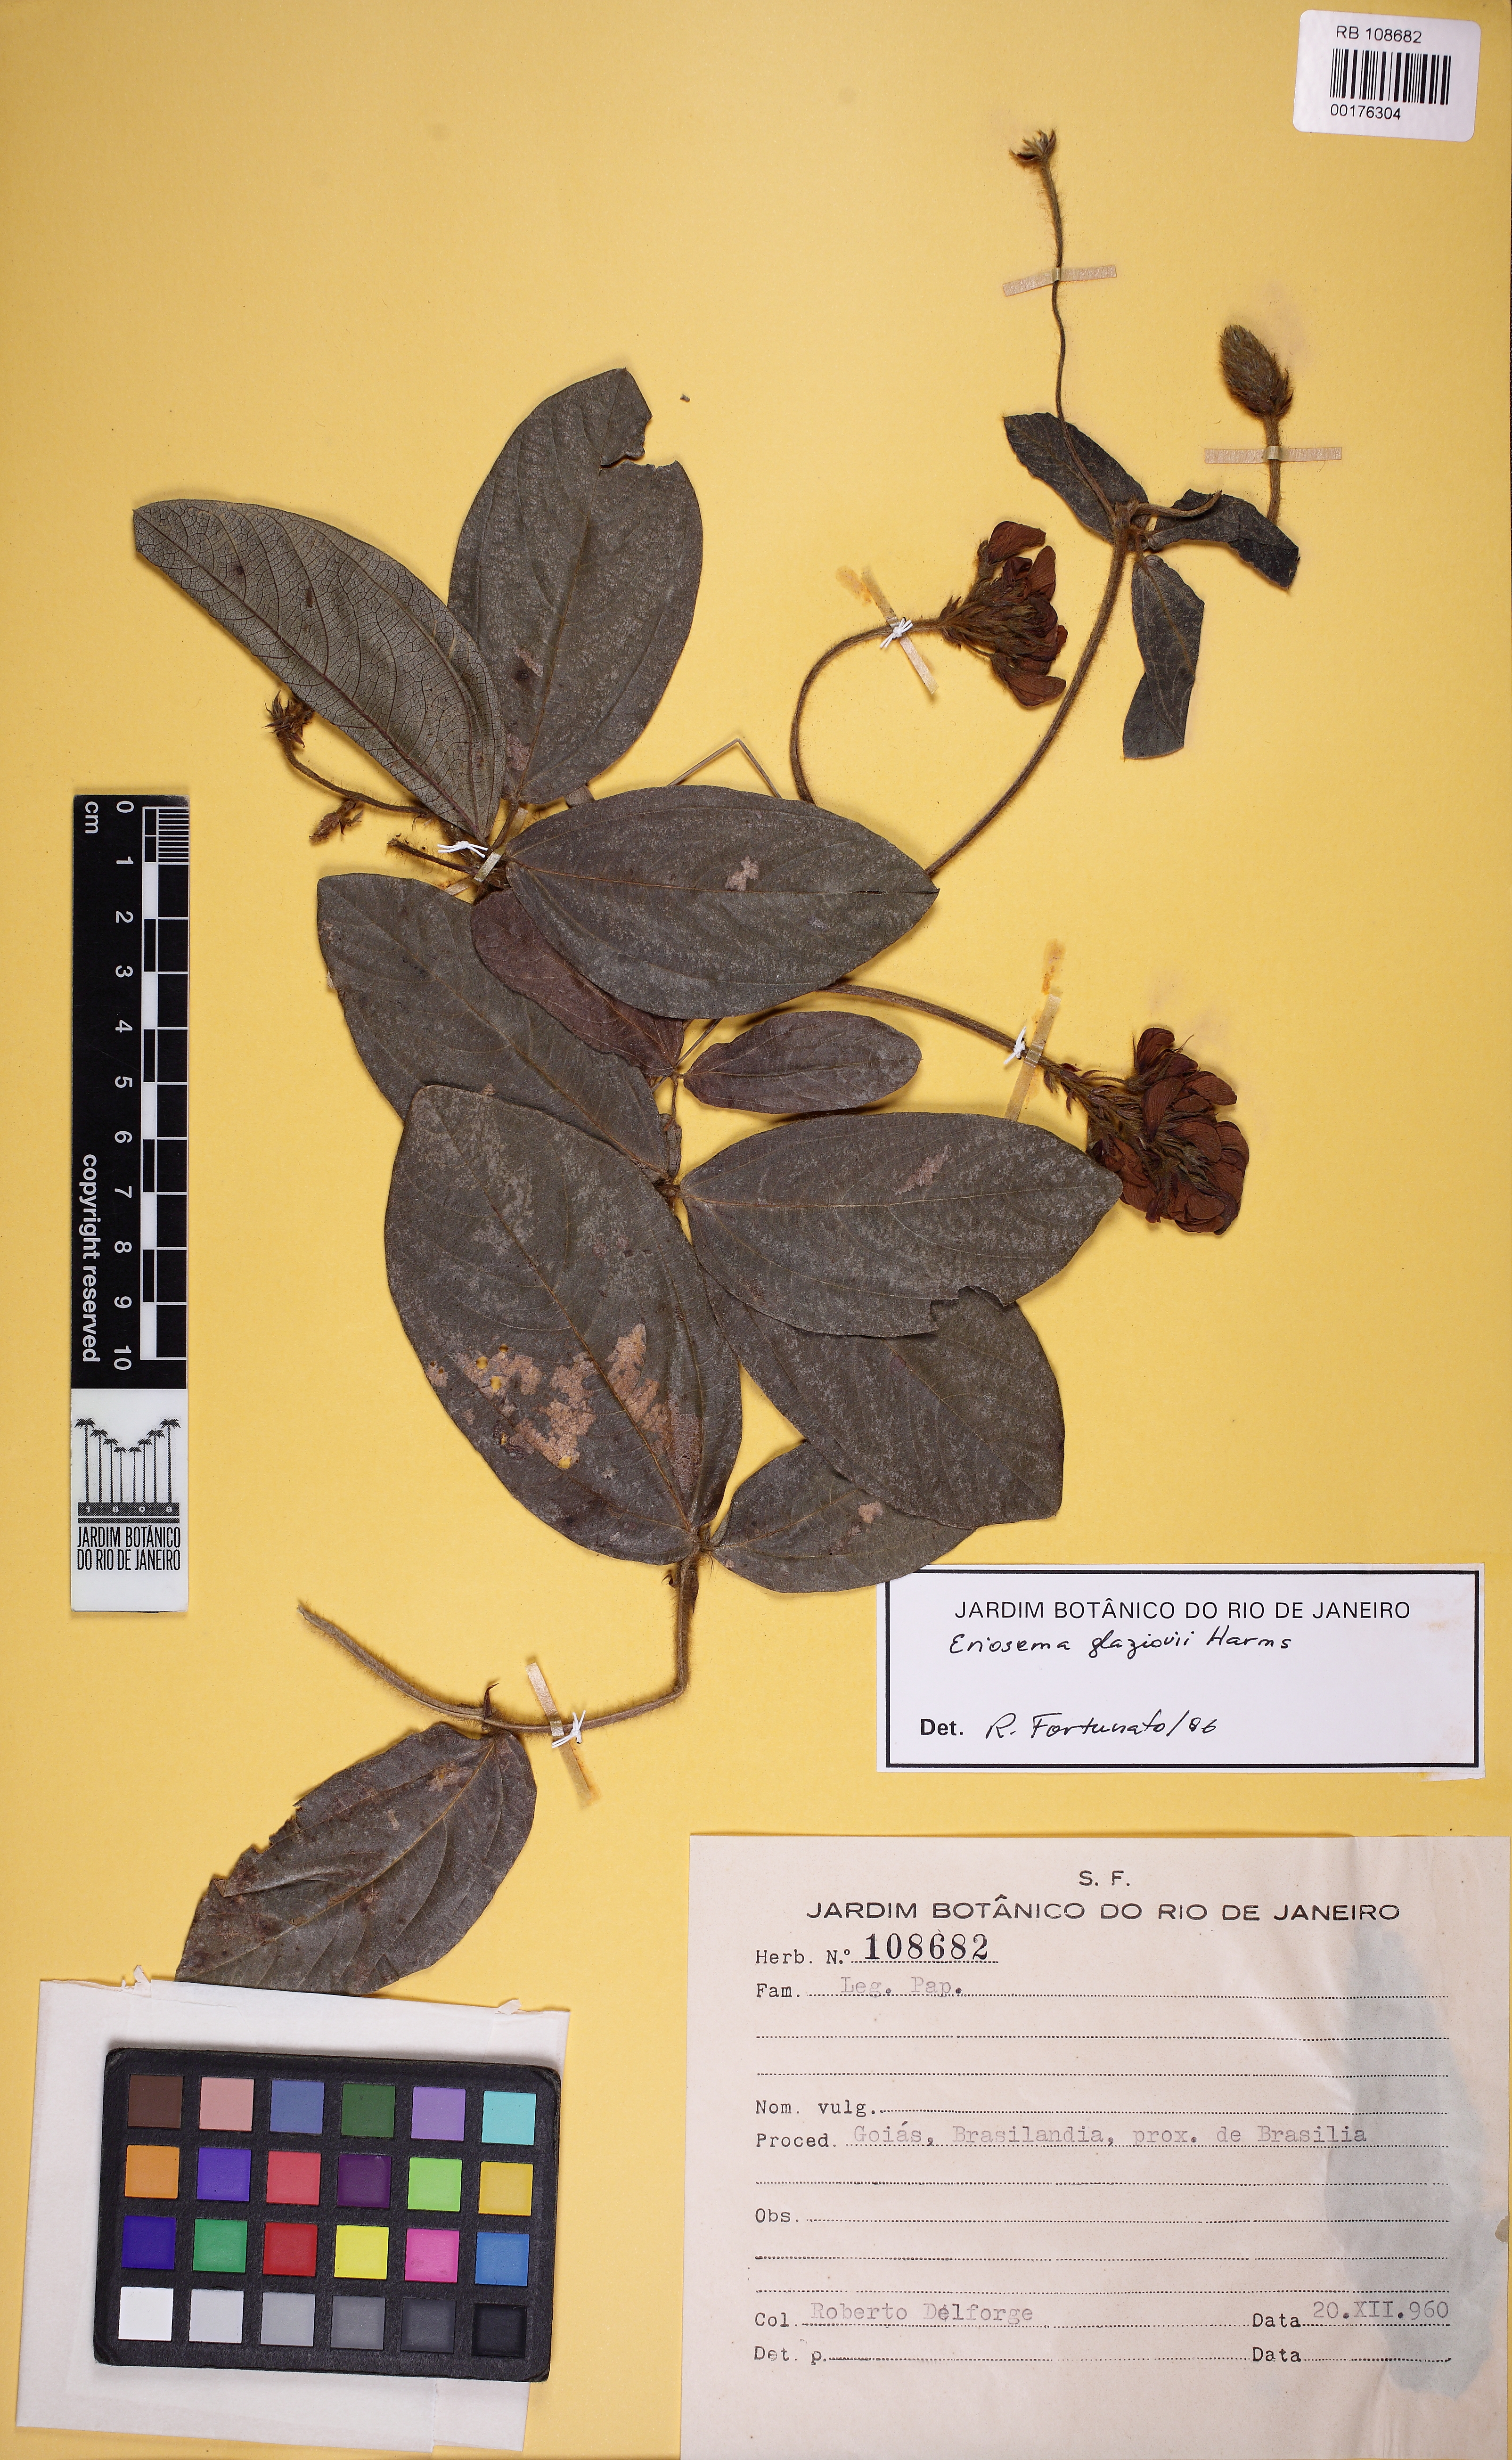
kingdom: Plantae
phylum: Tracheophyta
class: Magnoliopsida
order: Fabales
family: Fabaceae
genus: Eriosema
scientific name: Eriosema glaziovii
